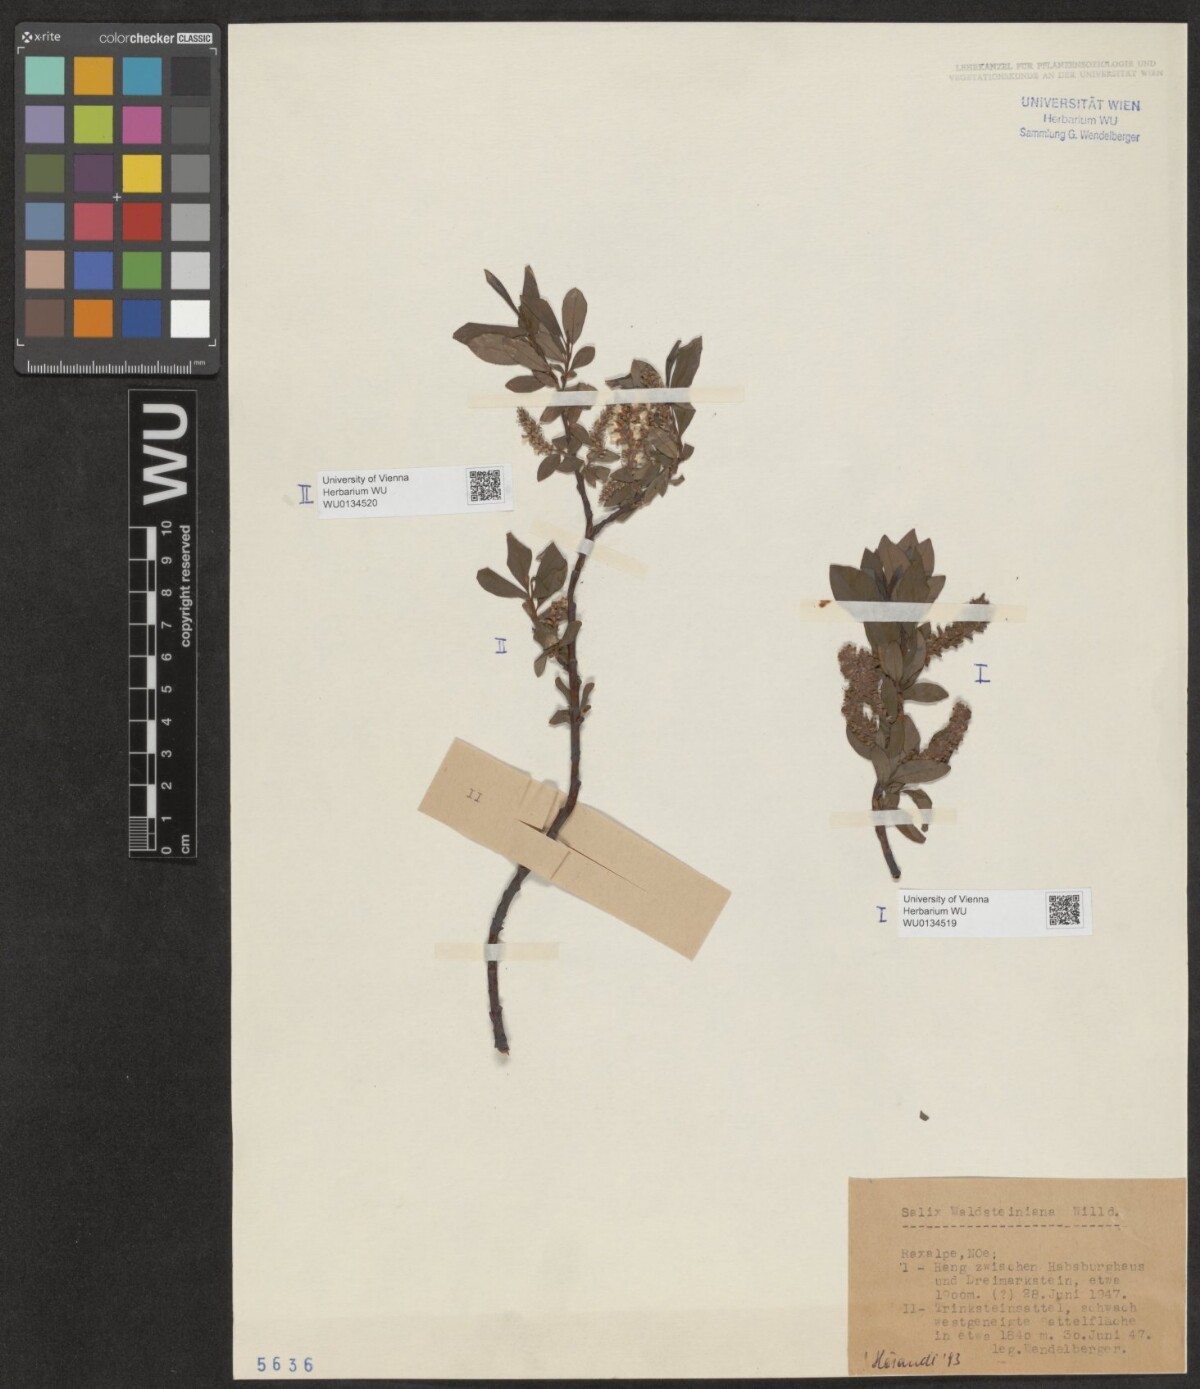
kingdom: Plantae
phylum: Tracheophyta
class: Magnoliopsida
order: Malpighiales
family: Salicaceae
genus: Salix
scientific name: Salix waldsteiniana
